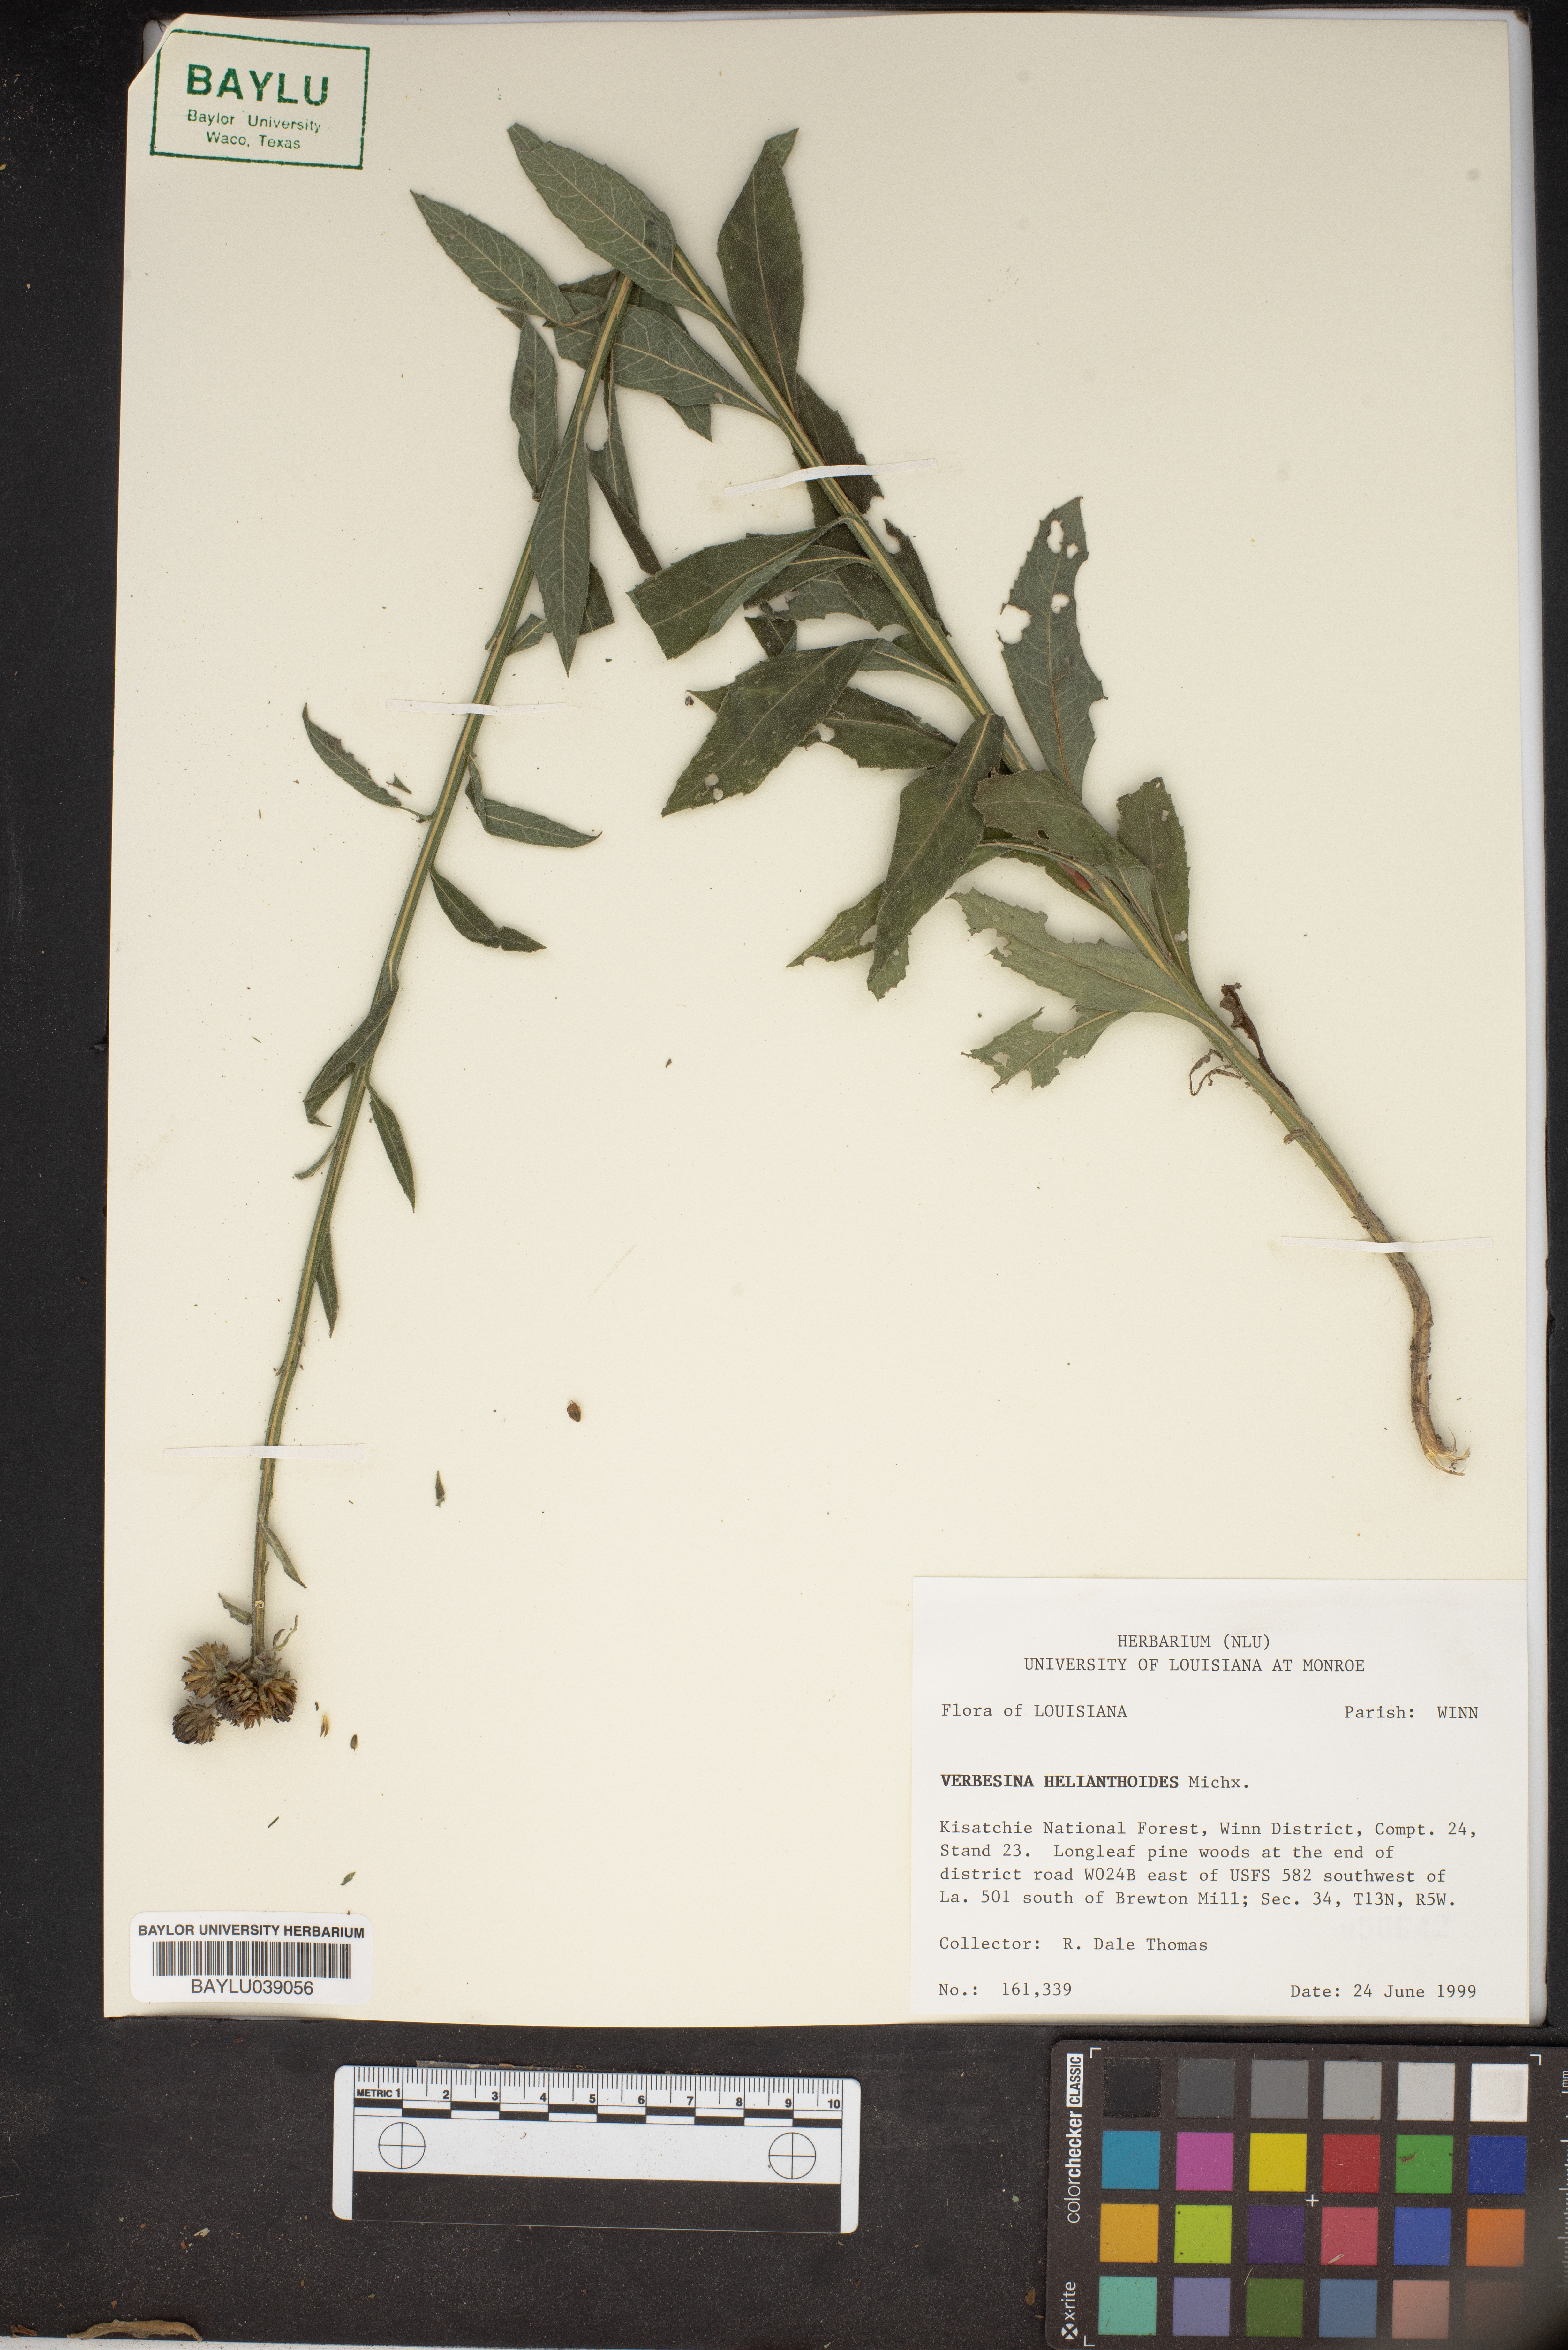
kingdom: Plantae
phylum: Tracheophyta
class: Magnoliopsida
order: Asterales
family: Asteraceae
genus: Verbesina
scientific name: Verbesina helianthoides
